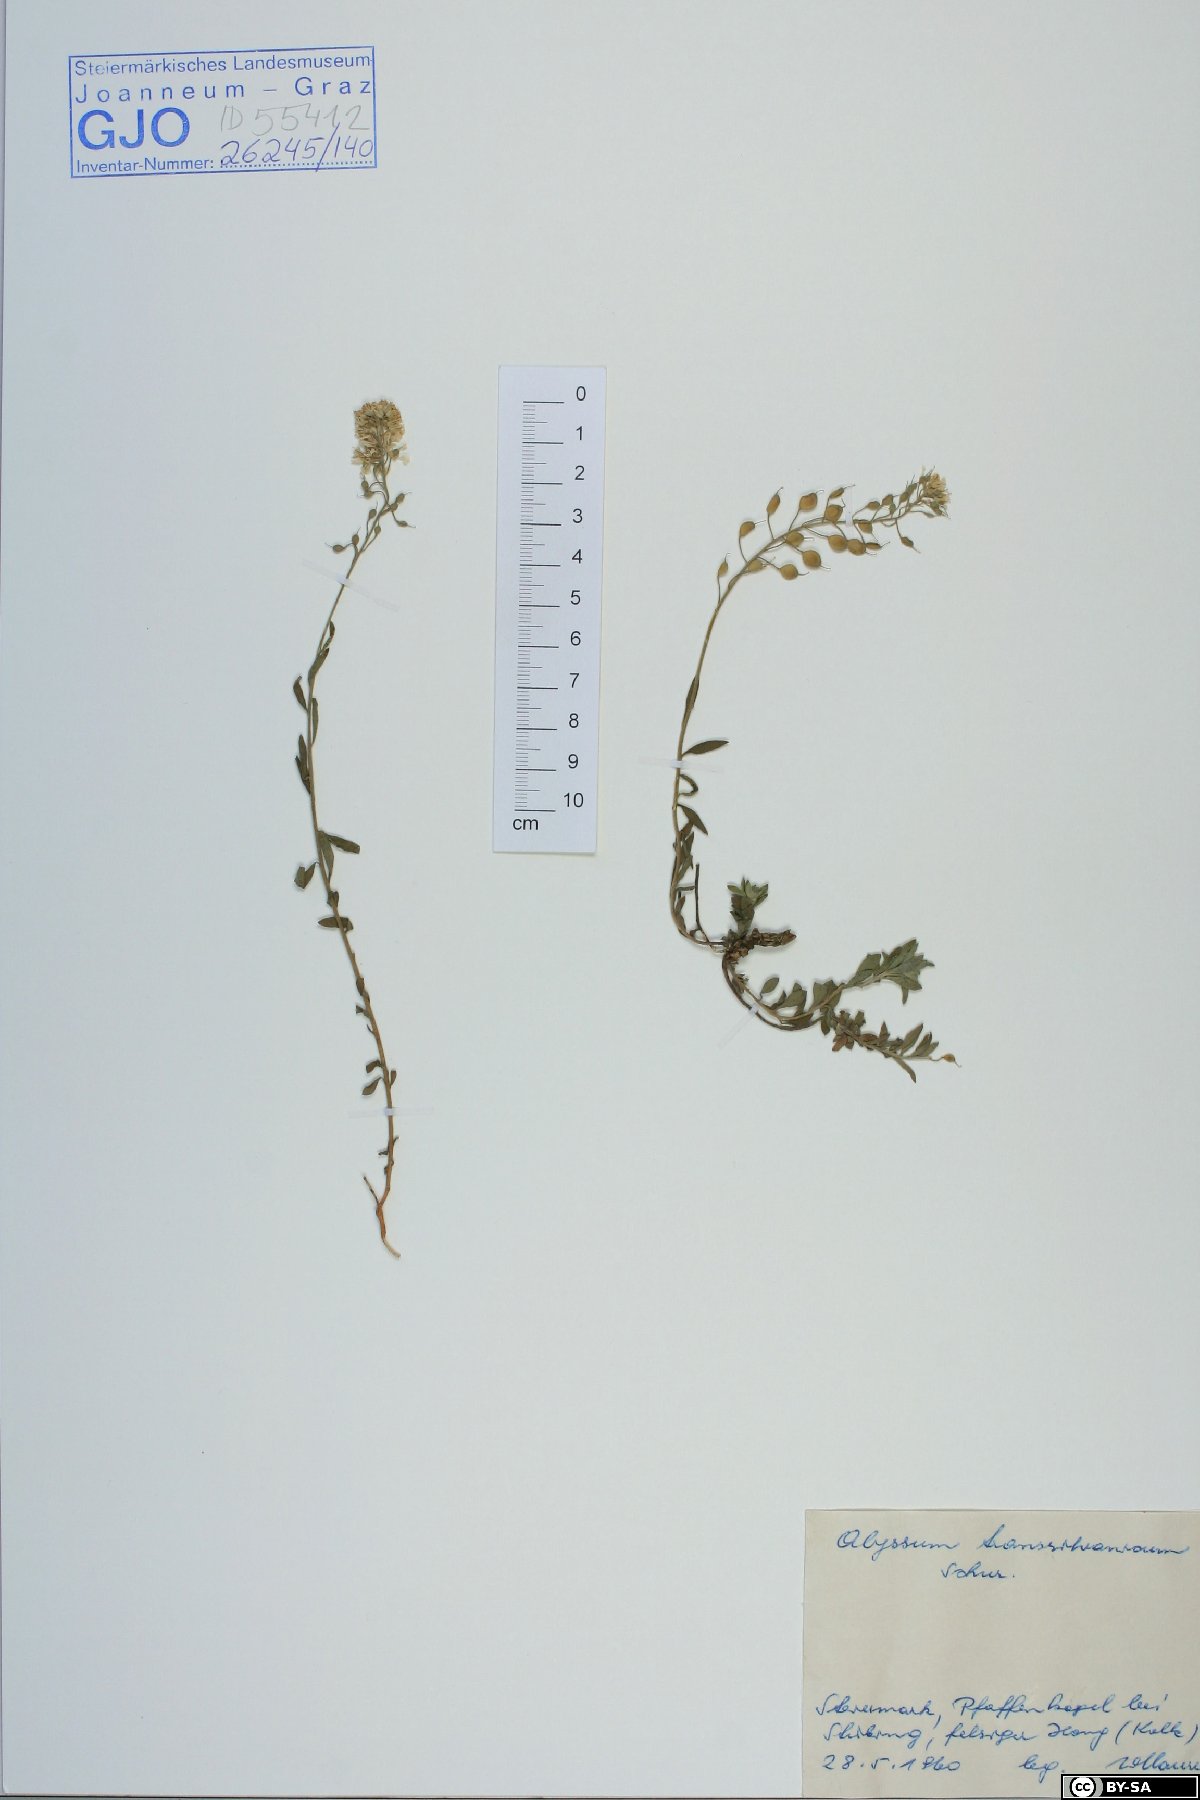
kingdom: Plantae
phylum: Tracheophyta
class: Magnoliopsida
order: Brassicales
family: Brassicaceae
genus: Alyssum
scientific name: Alyssum repens
